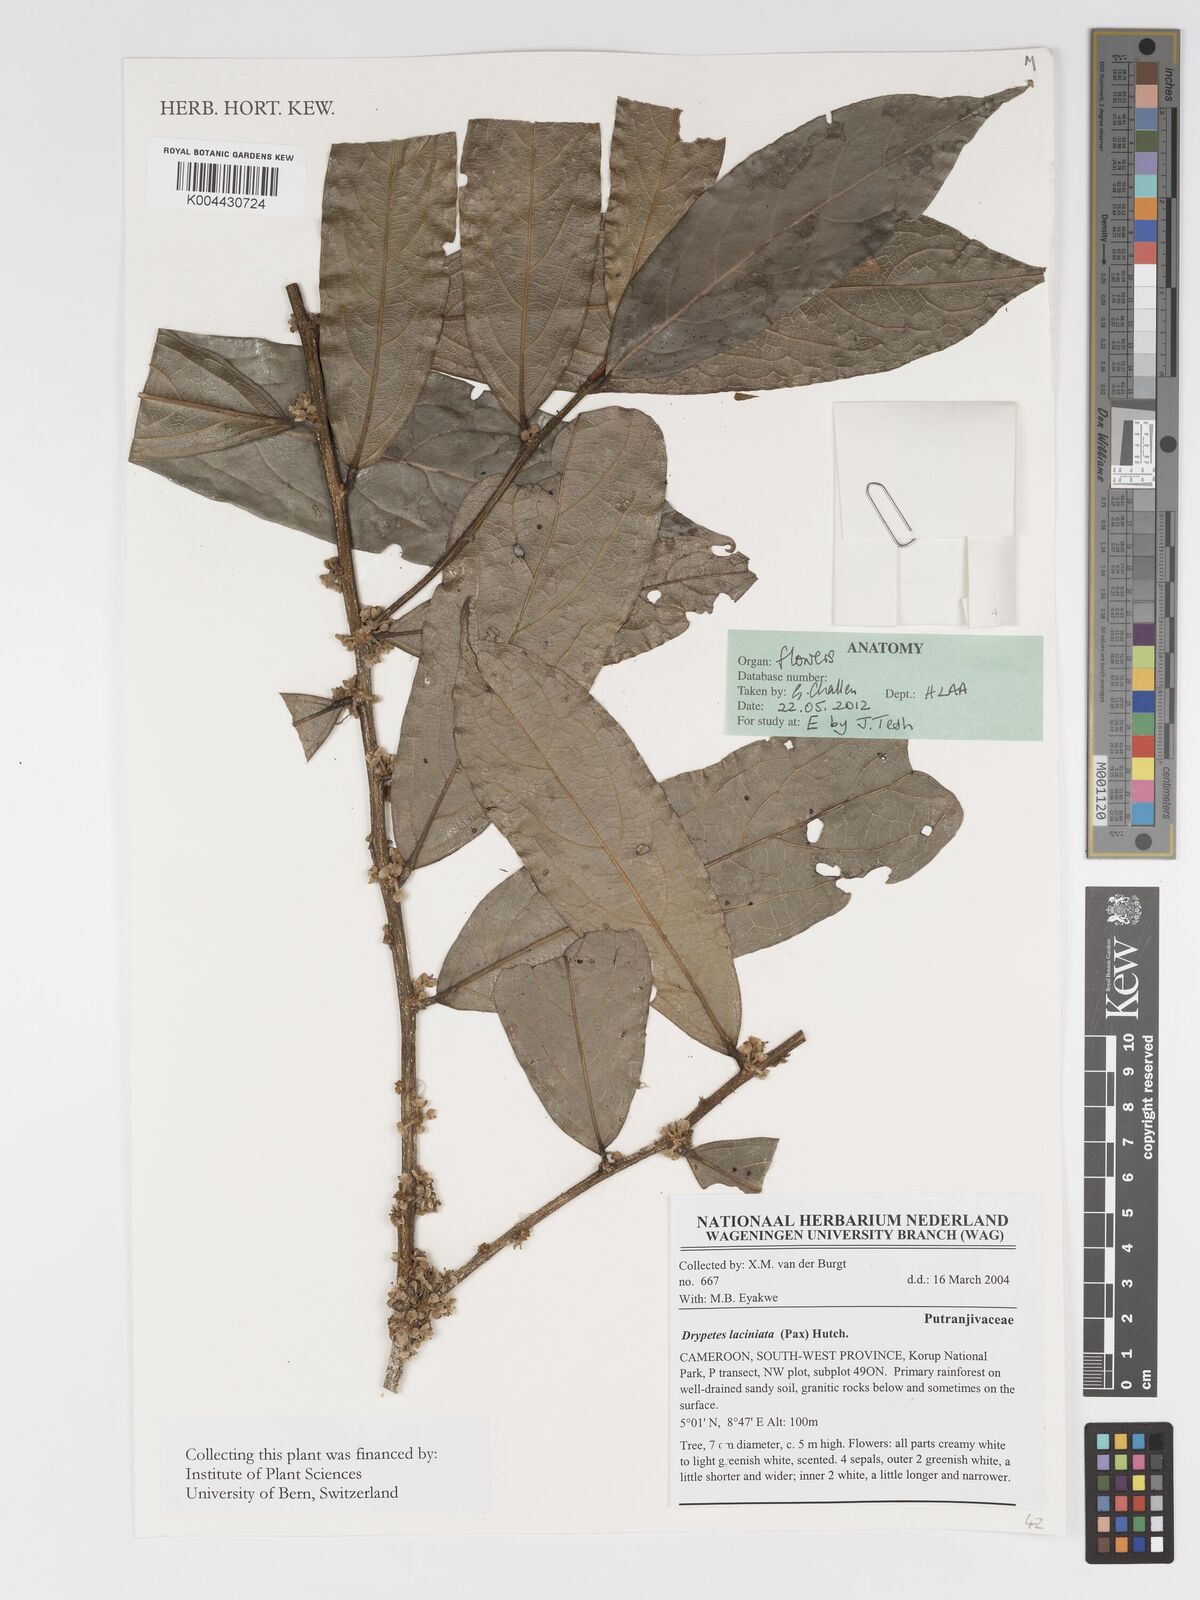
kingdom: Plantae
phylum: Tracheophyta
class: Magnoliopsida
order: Malpighiales
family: Putranjivaceae
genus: Drypetes
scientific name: Drypetes laciniata
